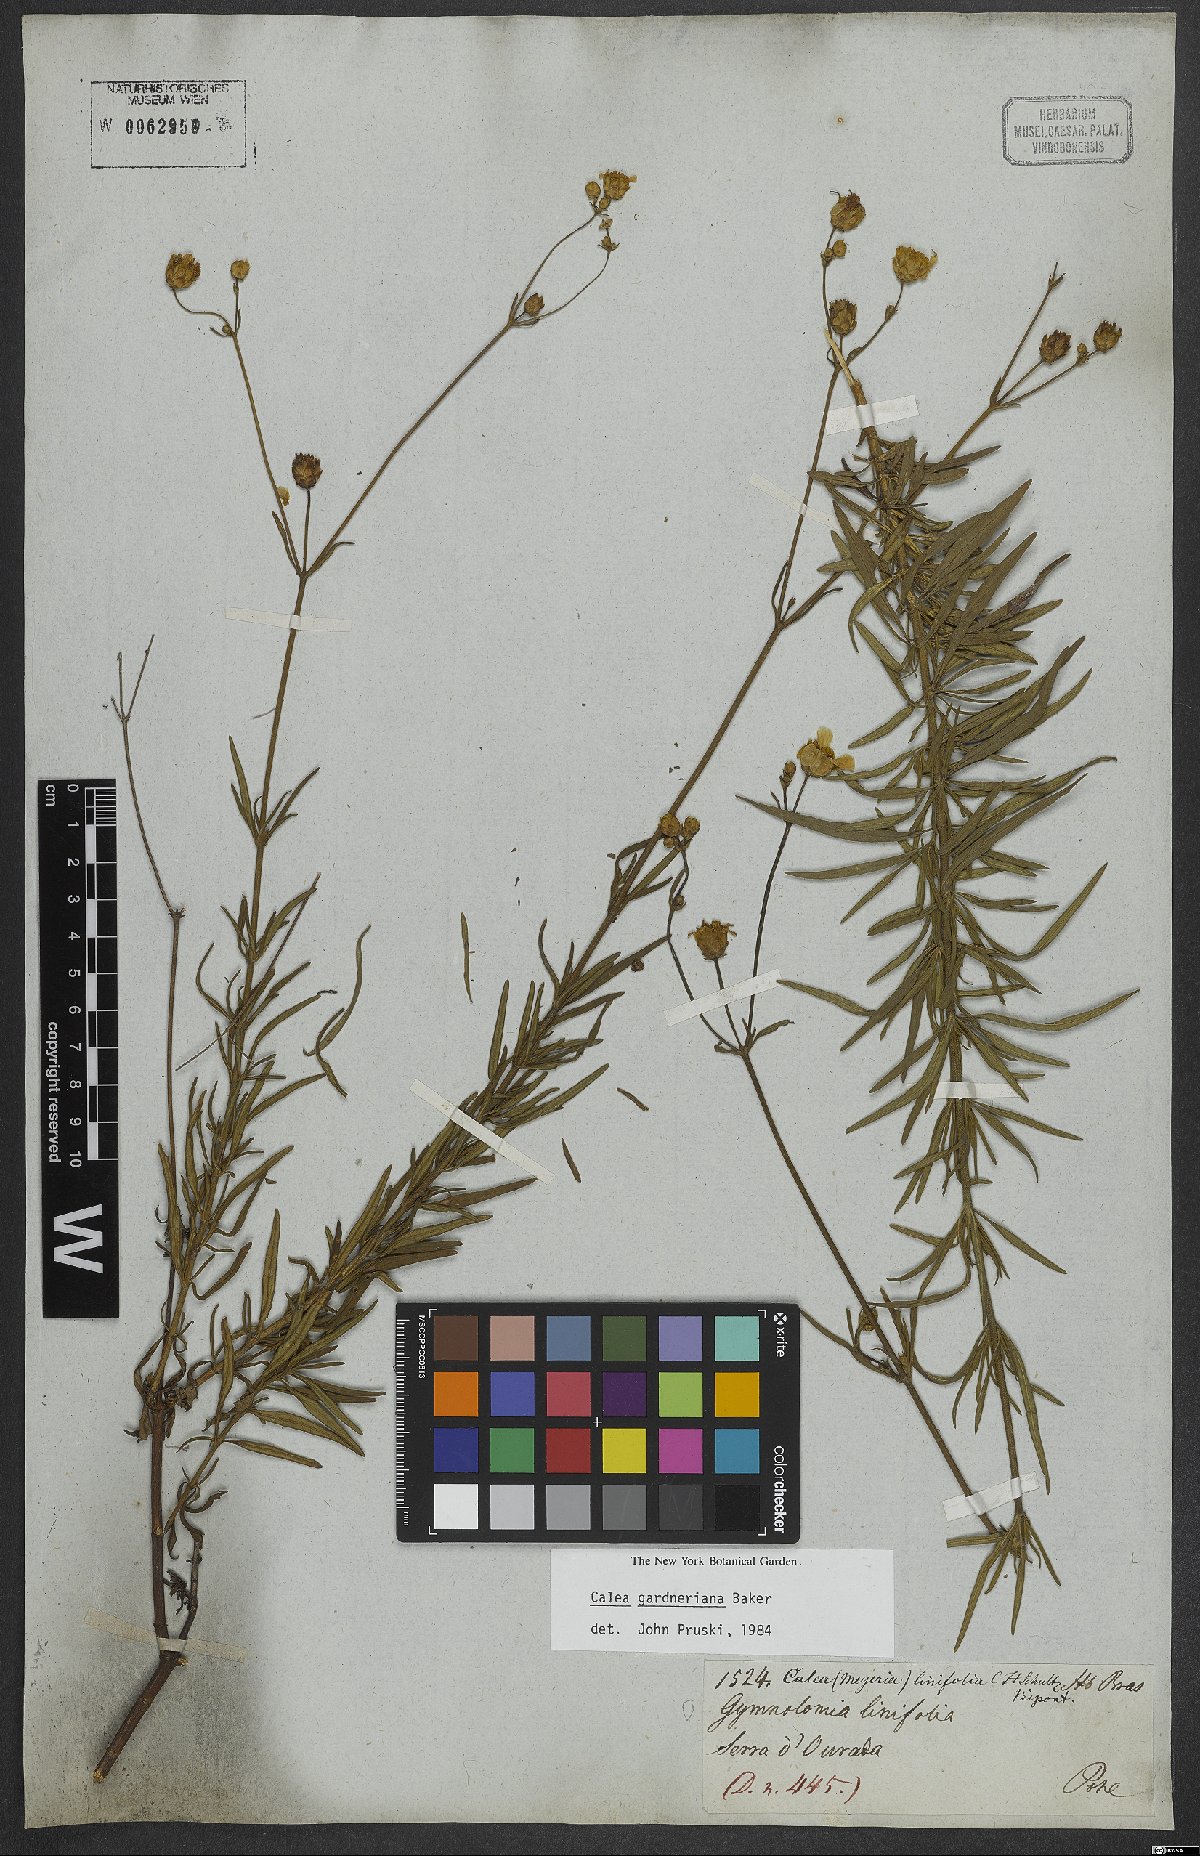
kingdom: Plantae
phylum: Tracheophyta
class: Magnoliopsida
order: Asterales
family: Asteraceae
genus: Calea
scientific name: Calea gardneriana
